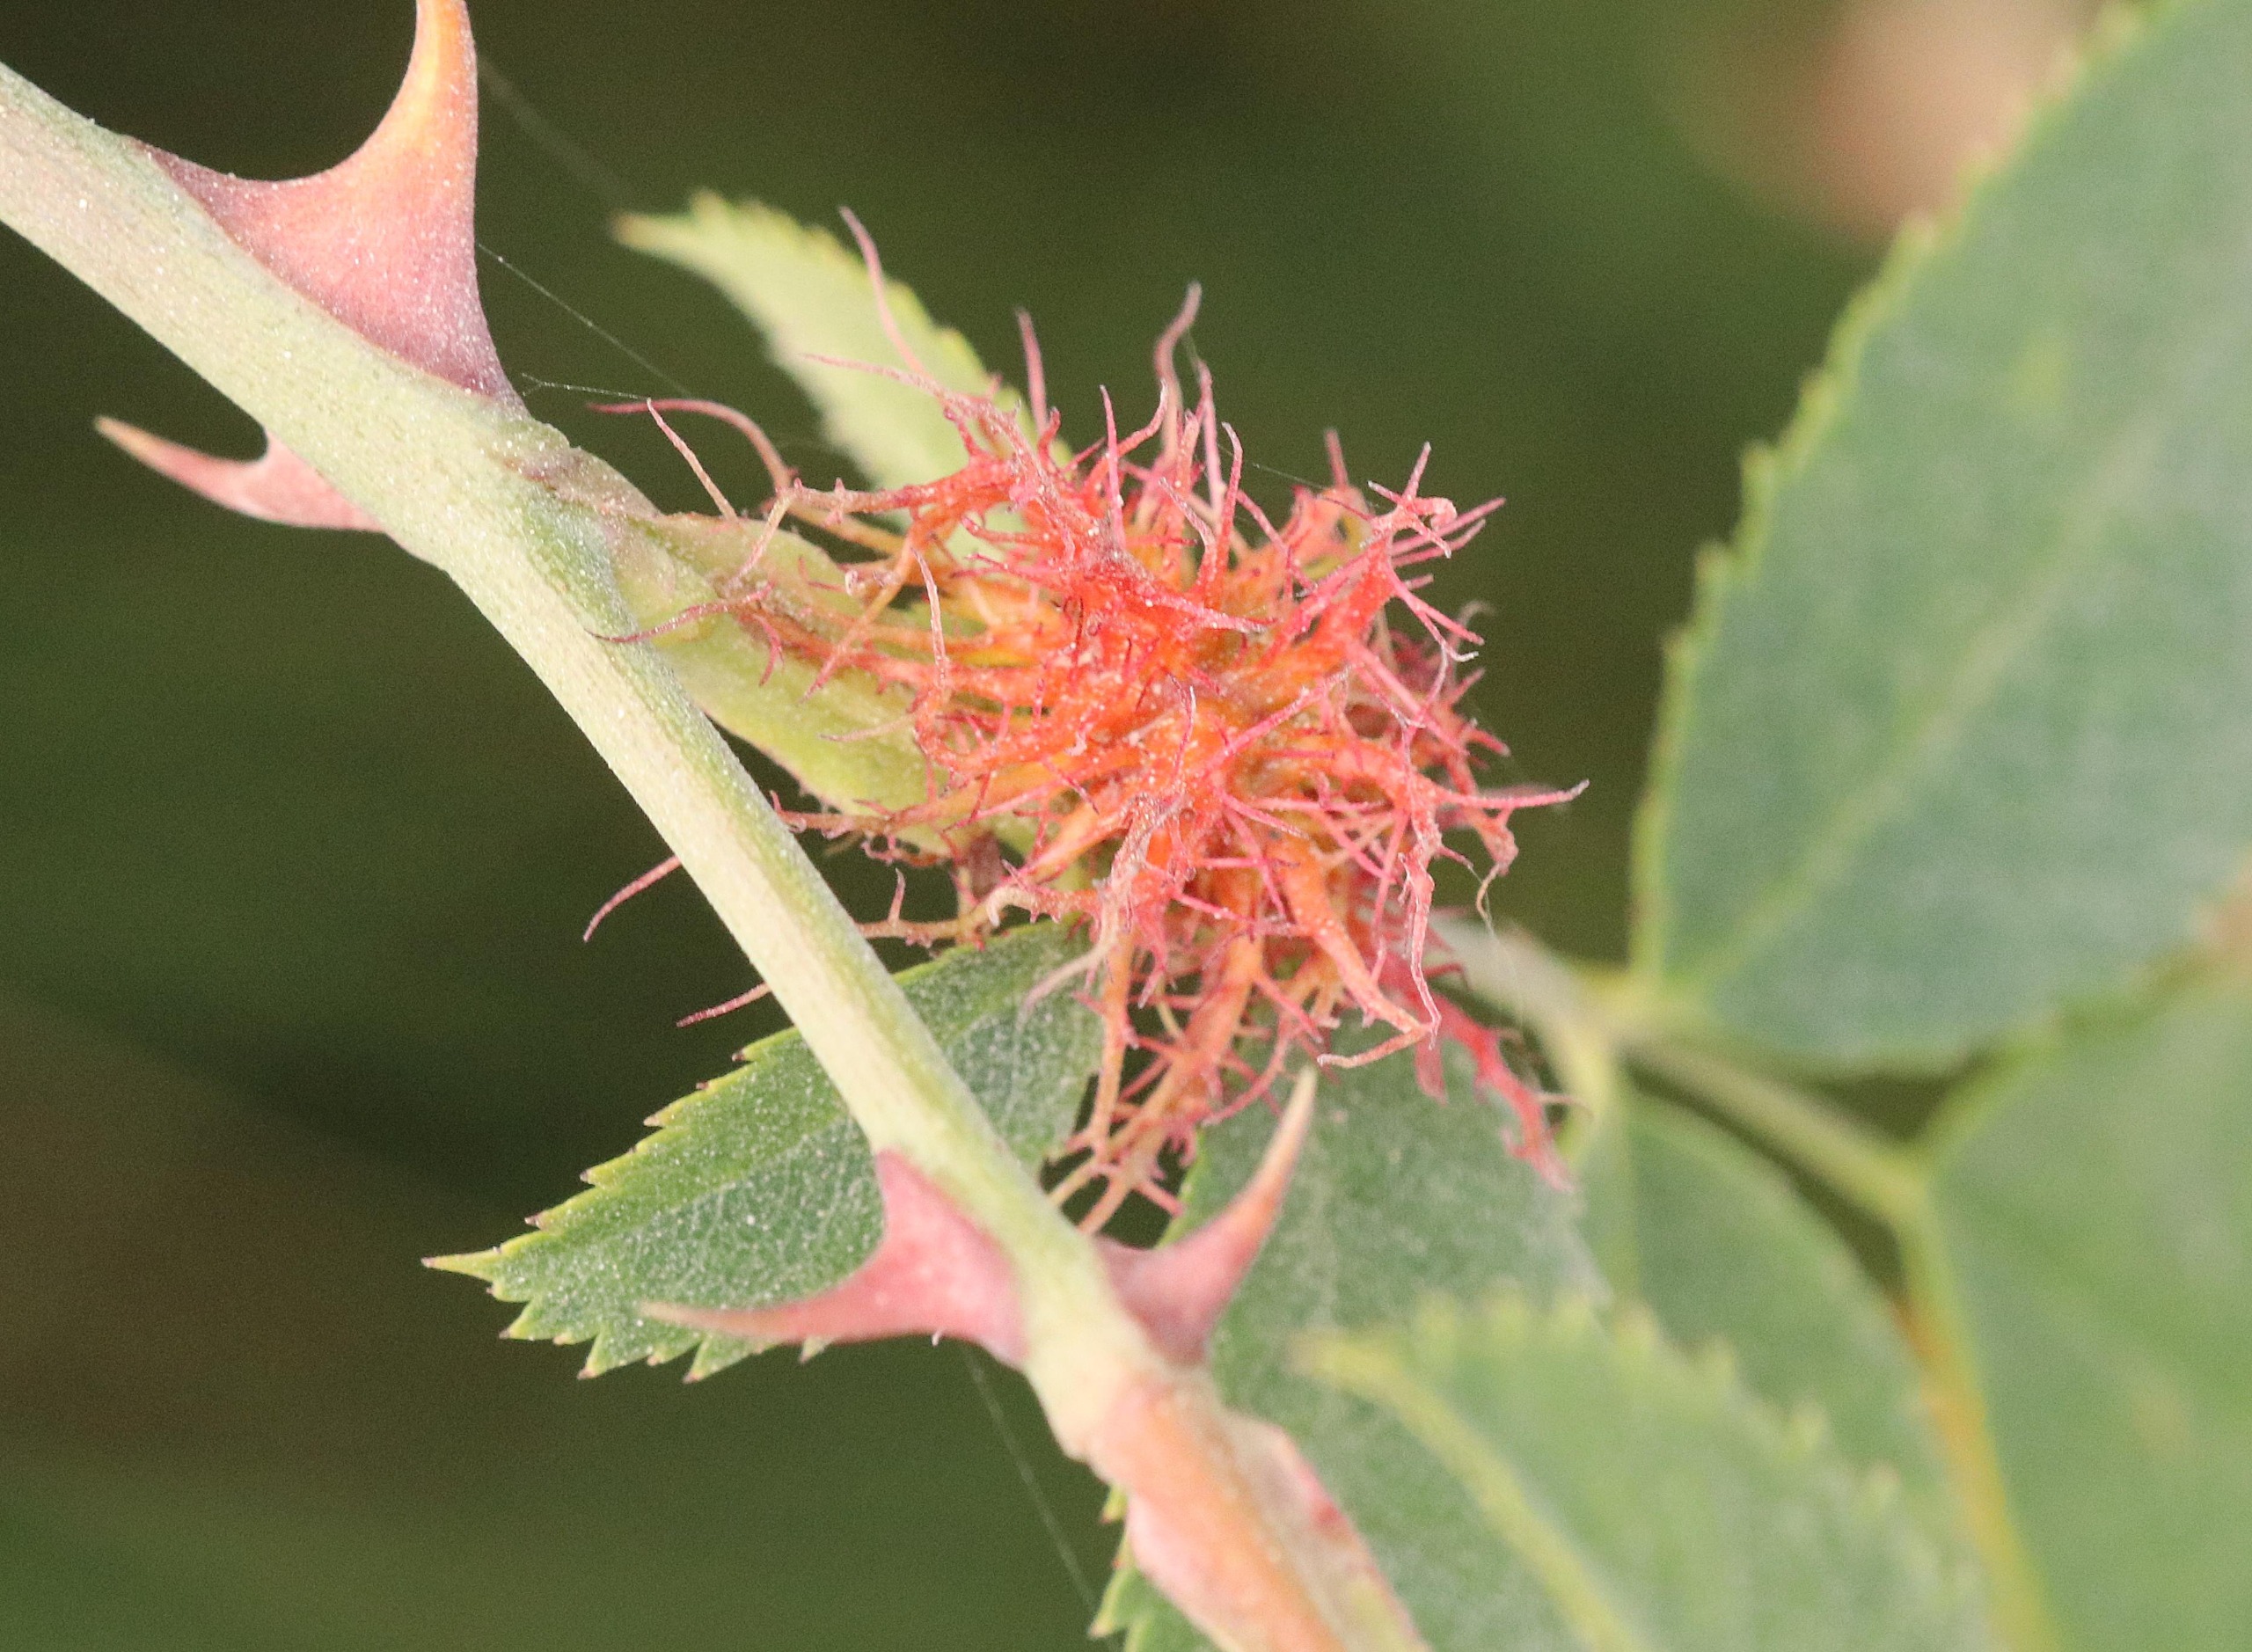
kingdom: Animalia
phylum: Arthropoda
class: Insecta
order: Hymenoptera
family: Cynipidae
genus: Diplolepis
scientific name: Diplolepis rosae
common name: Bedeguargalhveps
